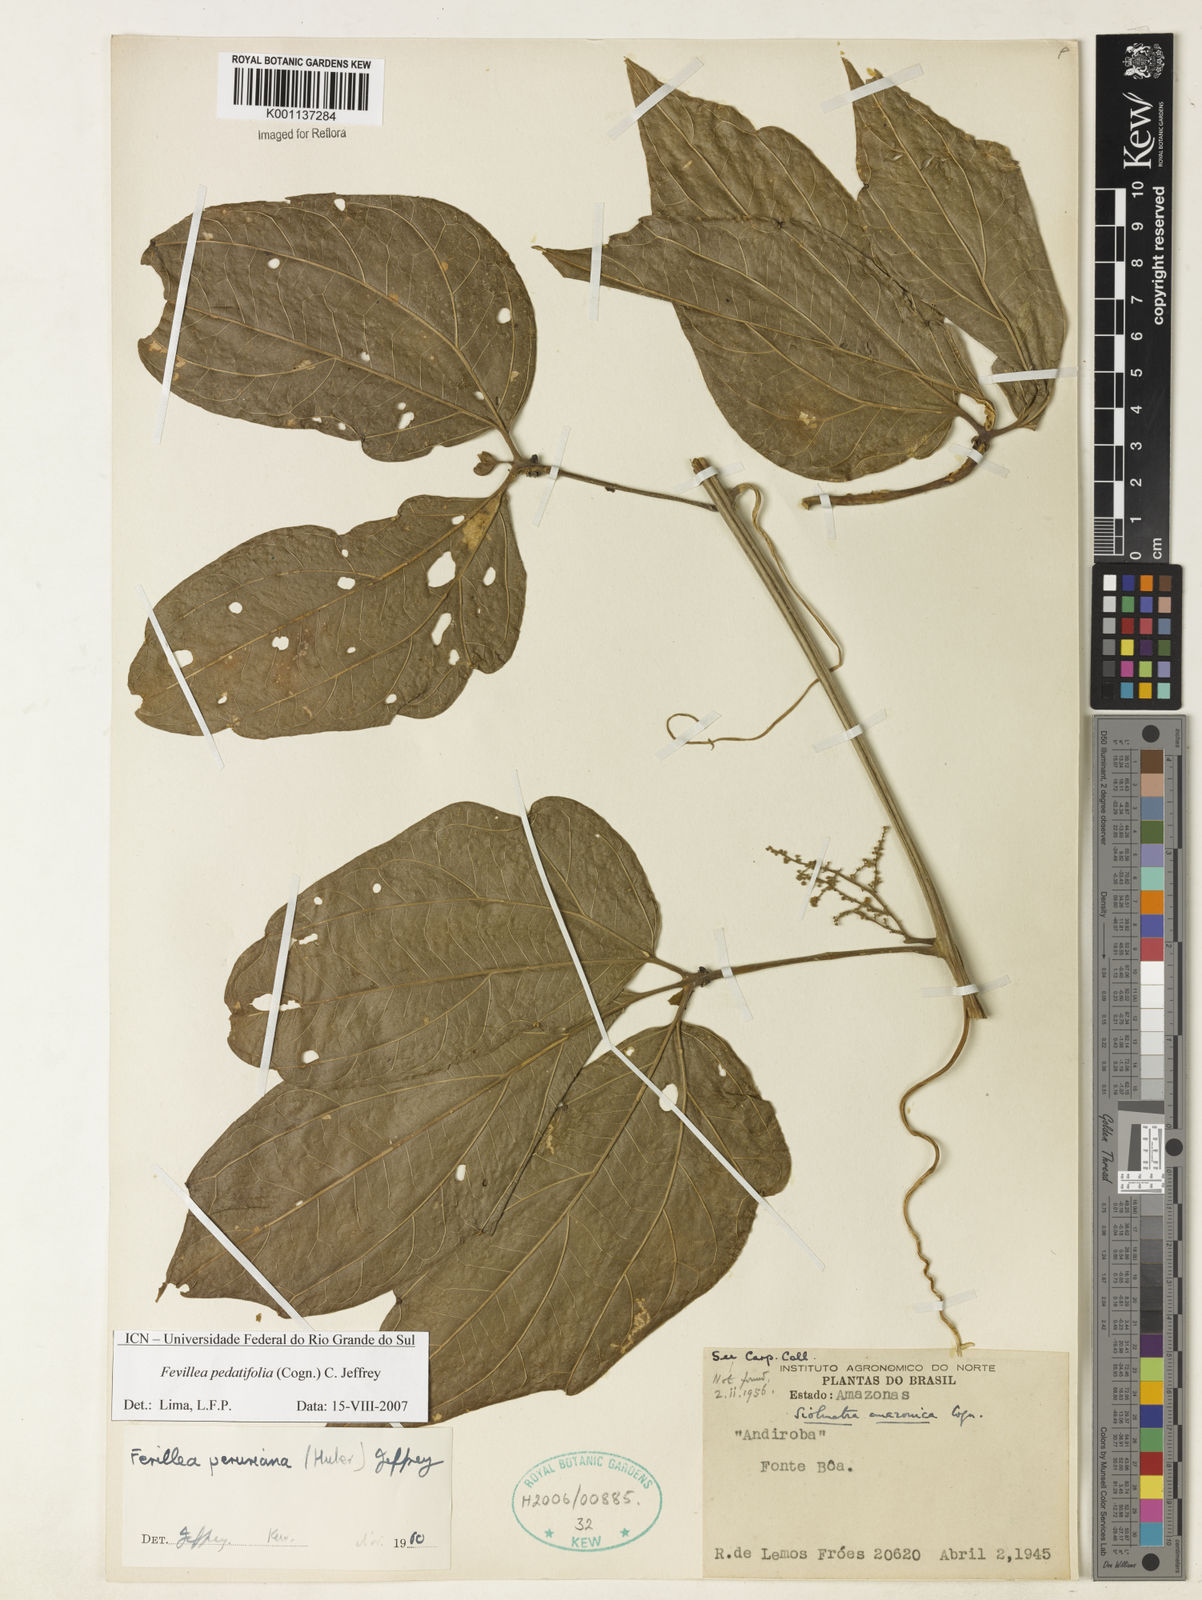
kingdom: Plantae
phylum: Tracheophyta
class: Magnoliopsida
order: Cucurbitales
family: Cucurbitaceae
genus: Fevillea
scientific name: Fevillea pedatifolia
